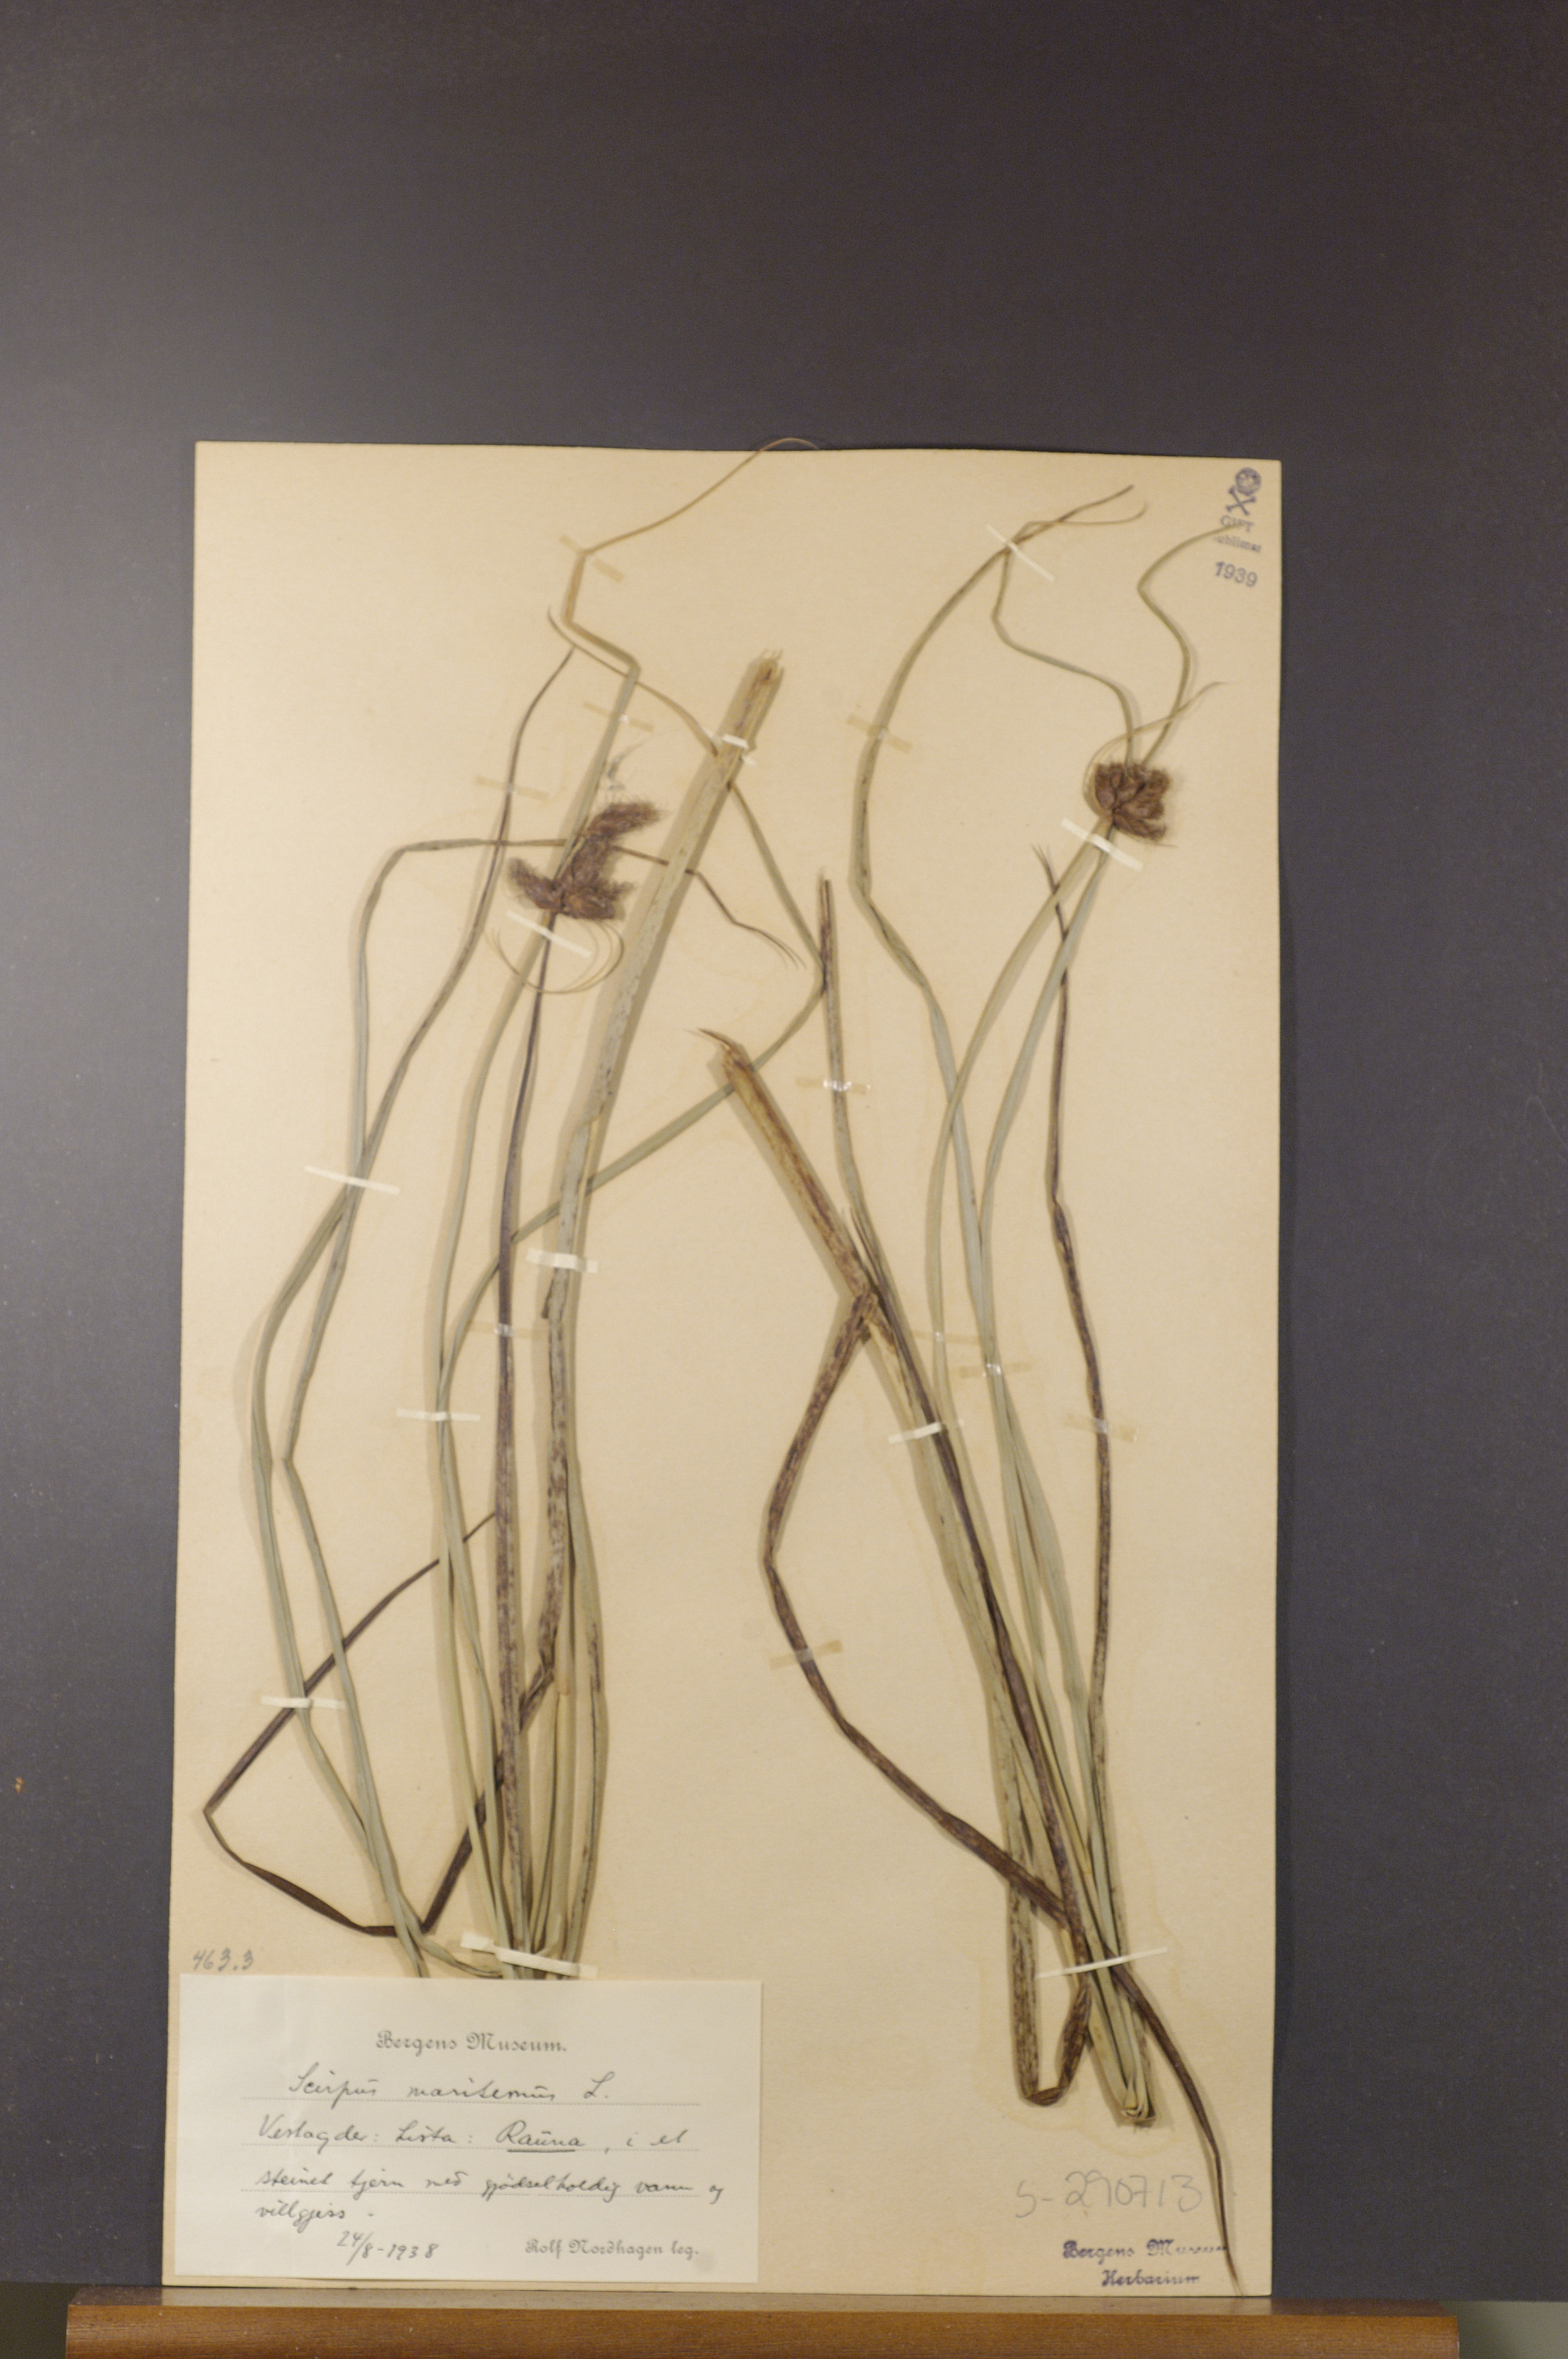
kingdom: Plantae
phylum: Tracheophyta
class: Liliopsida
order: Poales
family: Cyperaceae
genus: Bolboschoenus
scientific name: Bolboschoenus maritimus
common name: Sea club-rush
